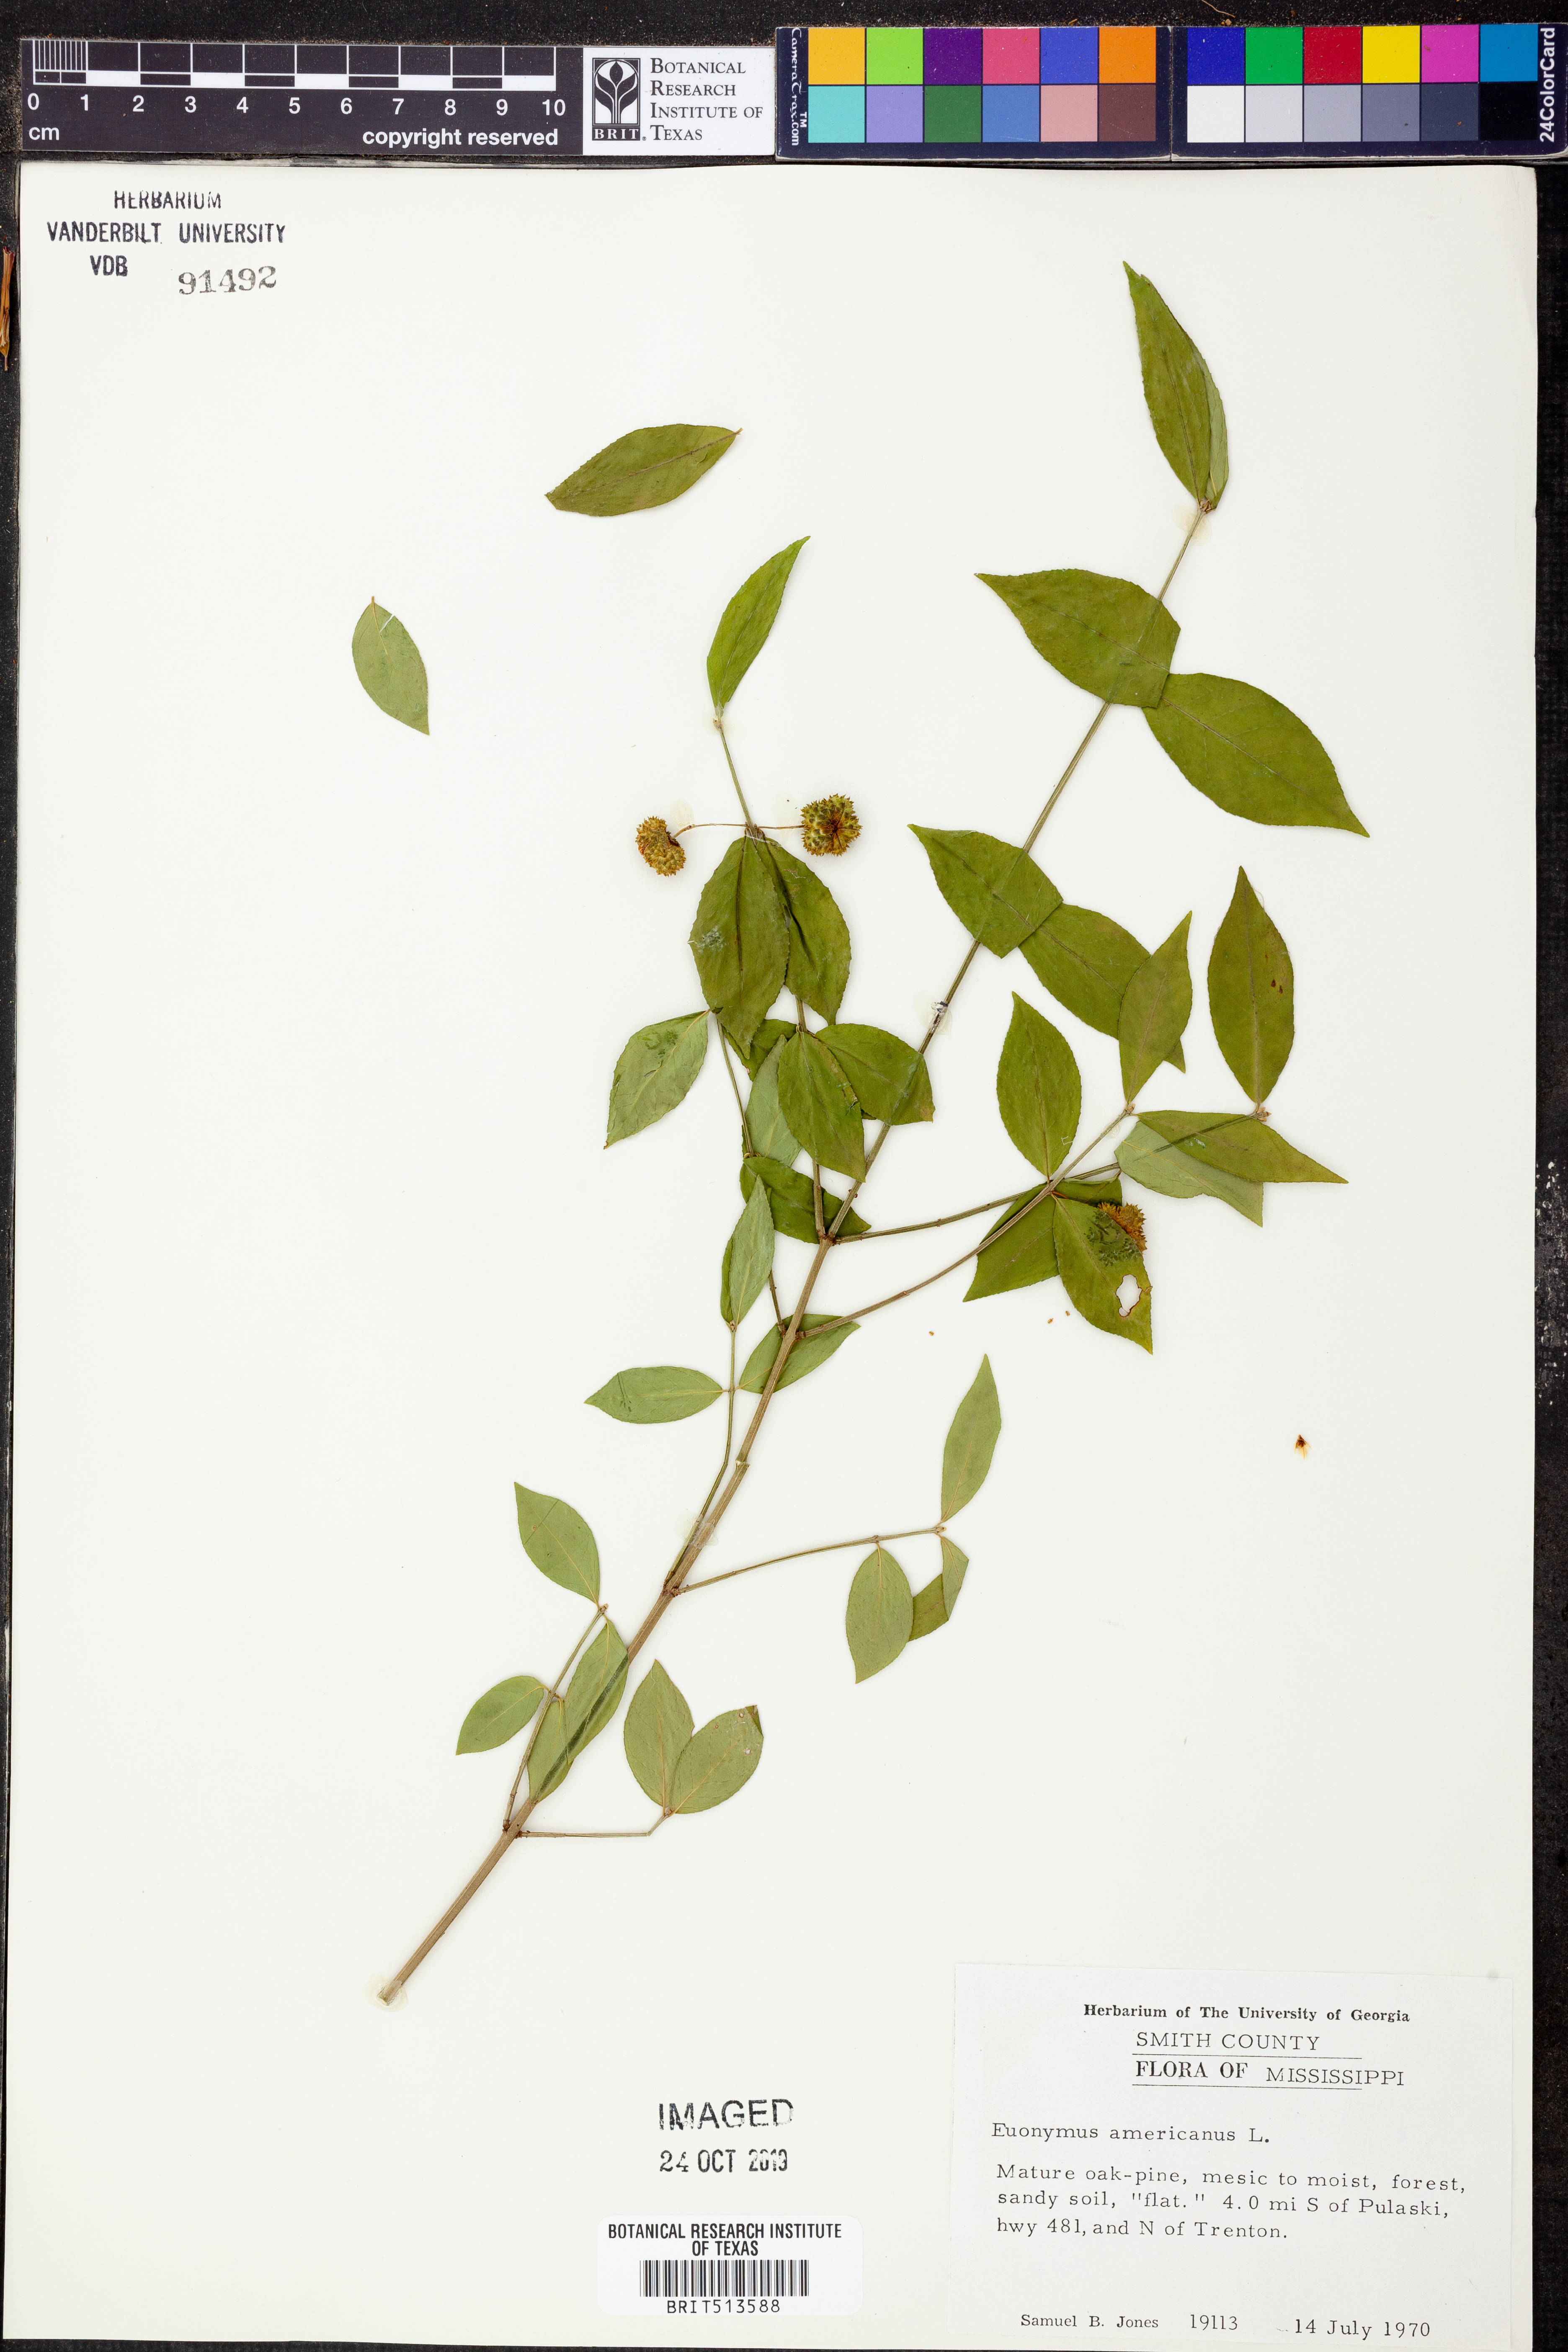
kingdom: Plantae
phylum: Tracheophyta
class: Magnoliopsida
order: Celastrales
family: Celastraceae
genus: Euonymus
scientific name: Euonymus americanus
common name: Bursting-heart
